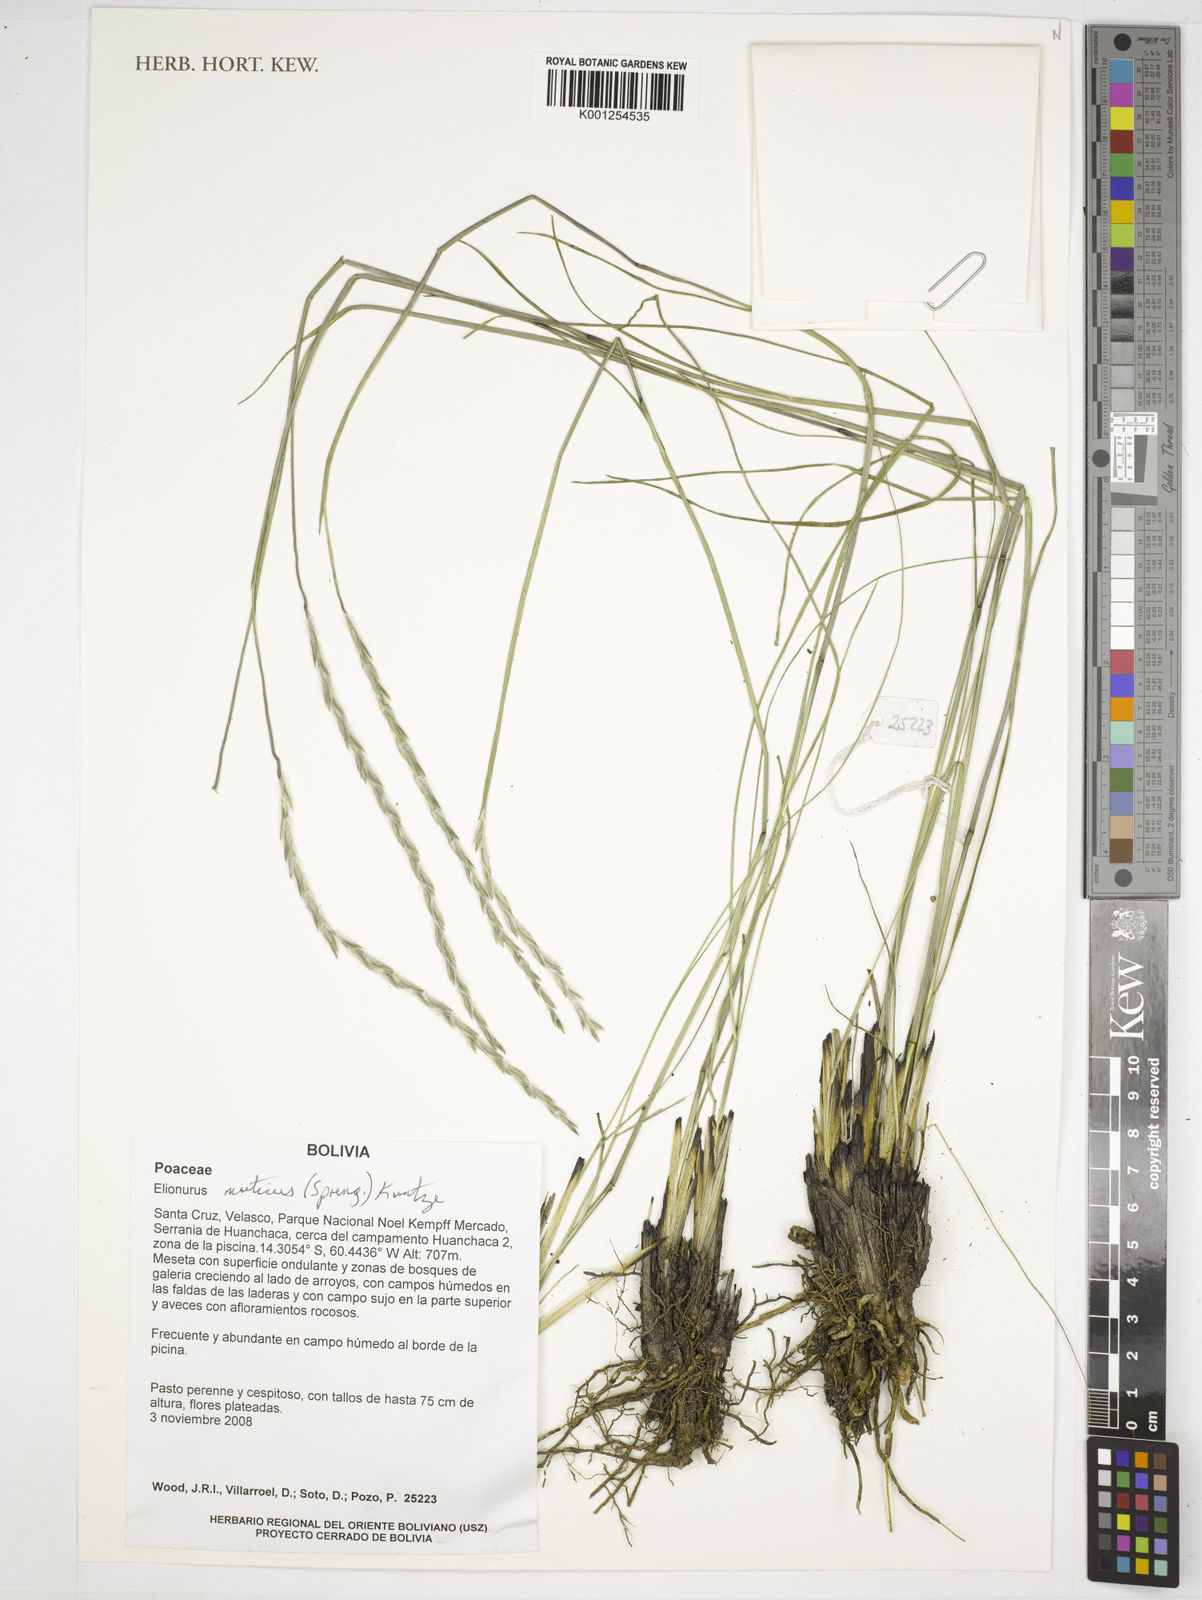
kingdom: Plantae
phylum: Tracheophyta
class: Liliopsida
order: Poales
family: Poaceae
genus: Elionurus
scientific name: Elionurus muticus
